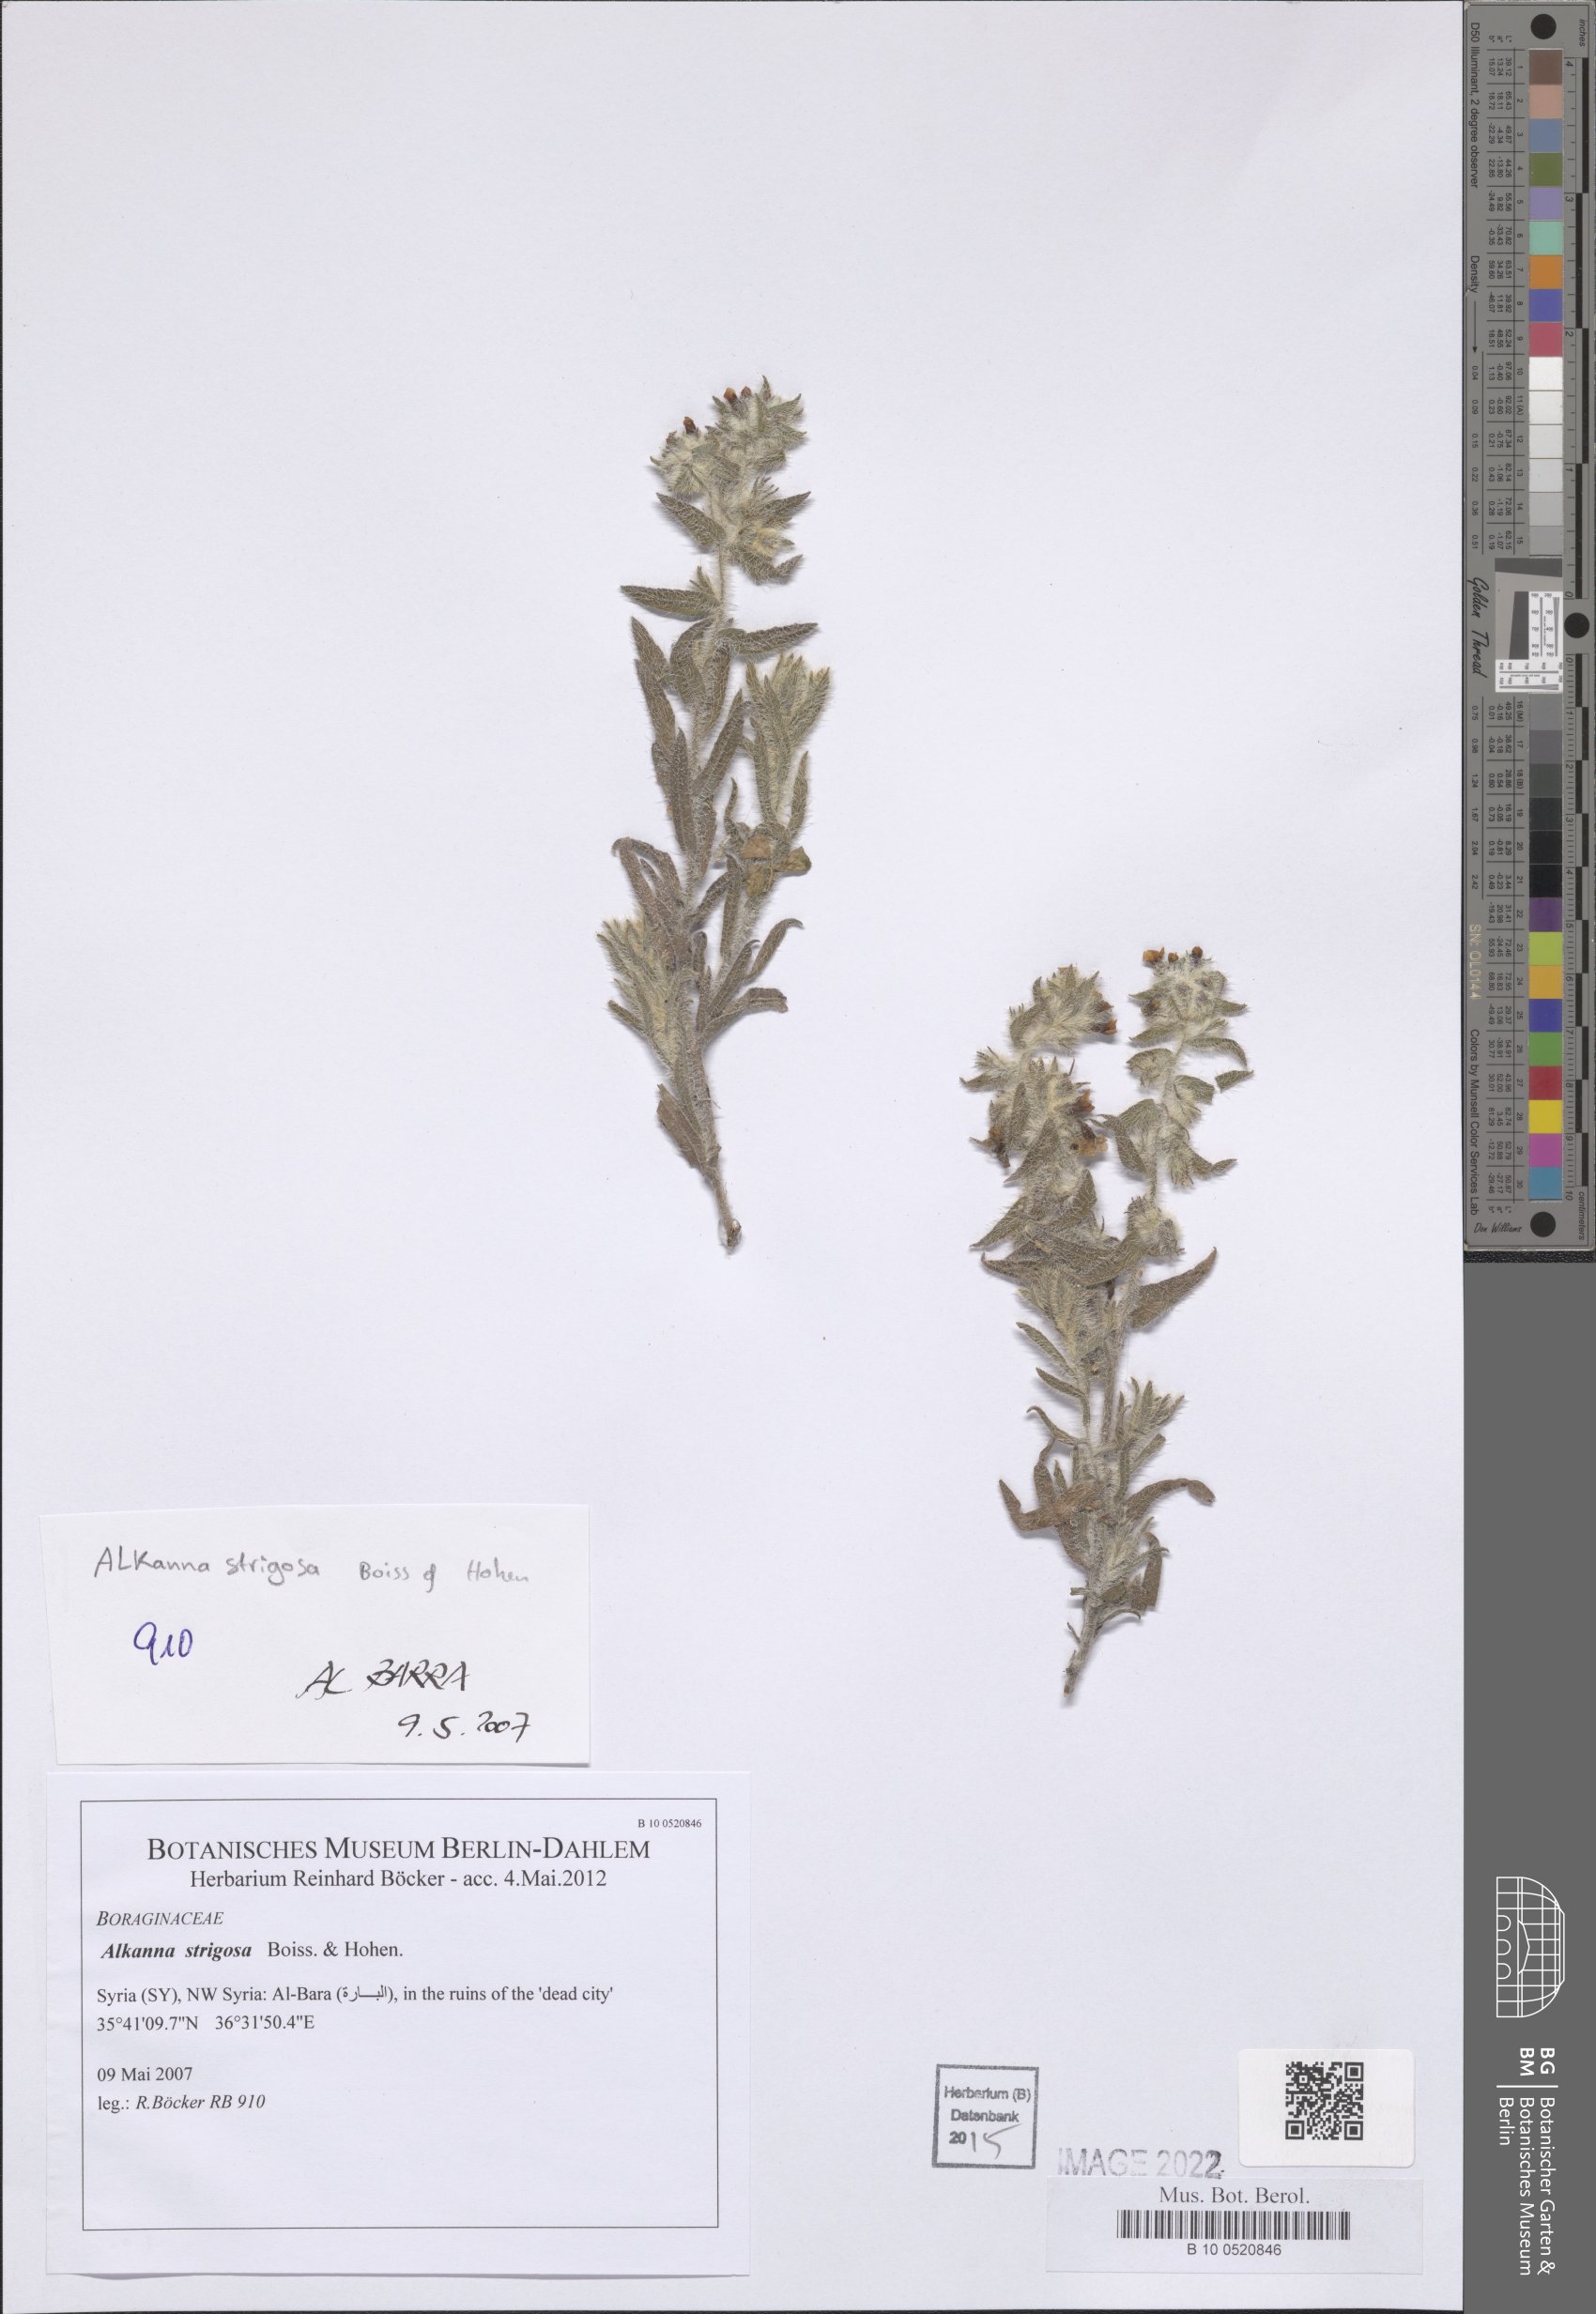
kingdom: Plantae
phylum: Tracheophyta
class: Magnoliopsida
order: Boraginales
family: Boraginaceae
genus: Alkanna
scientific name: Alkanna strigosa
